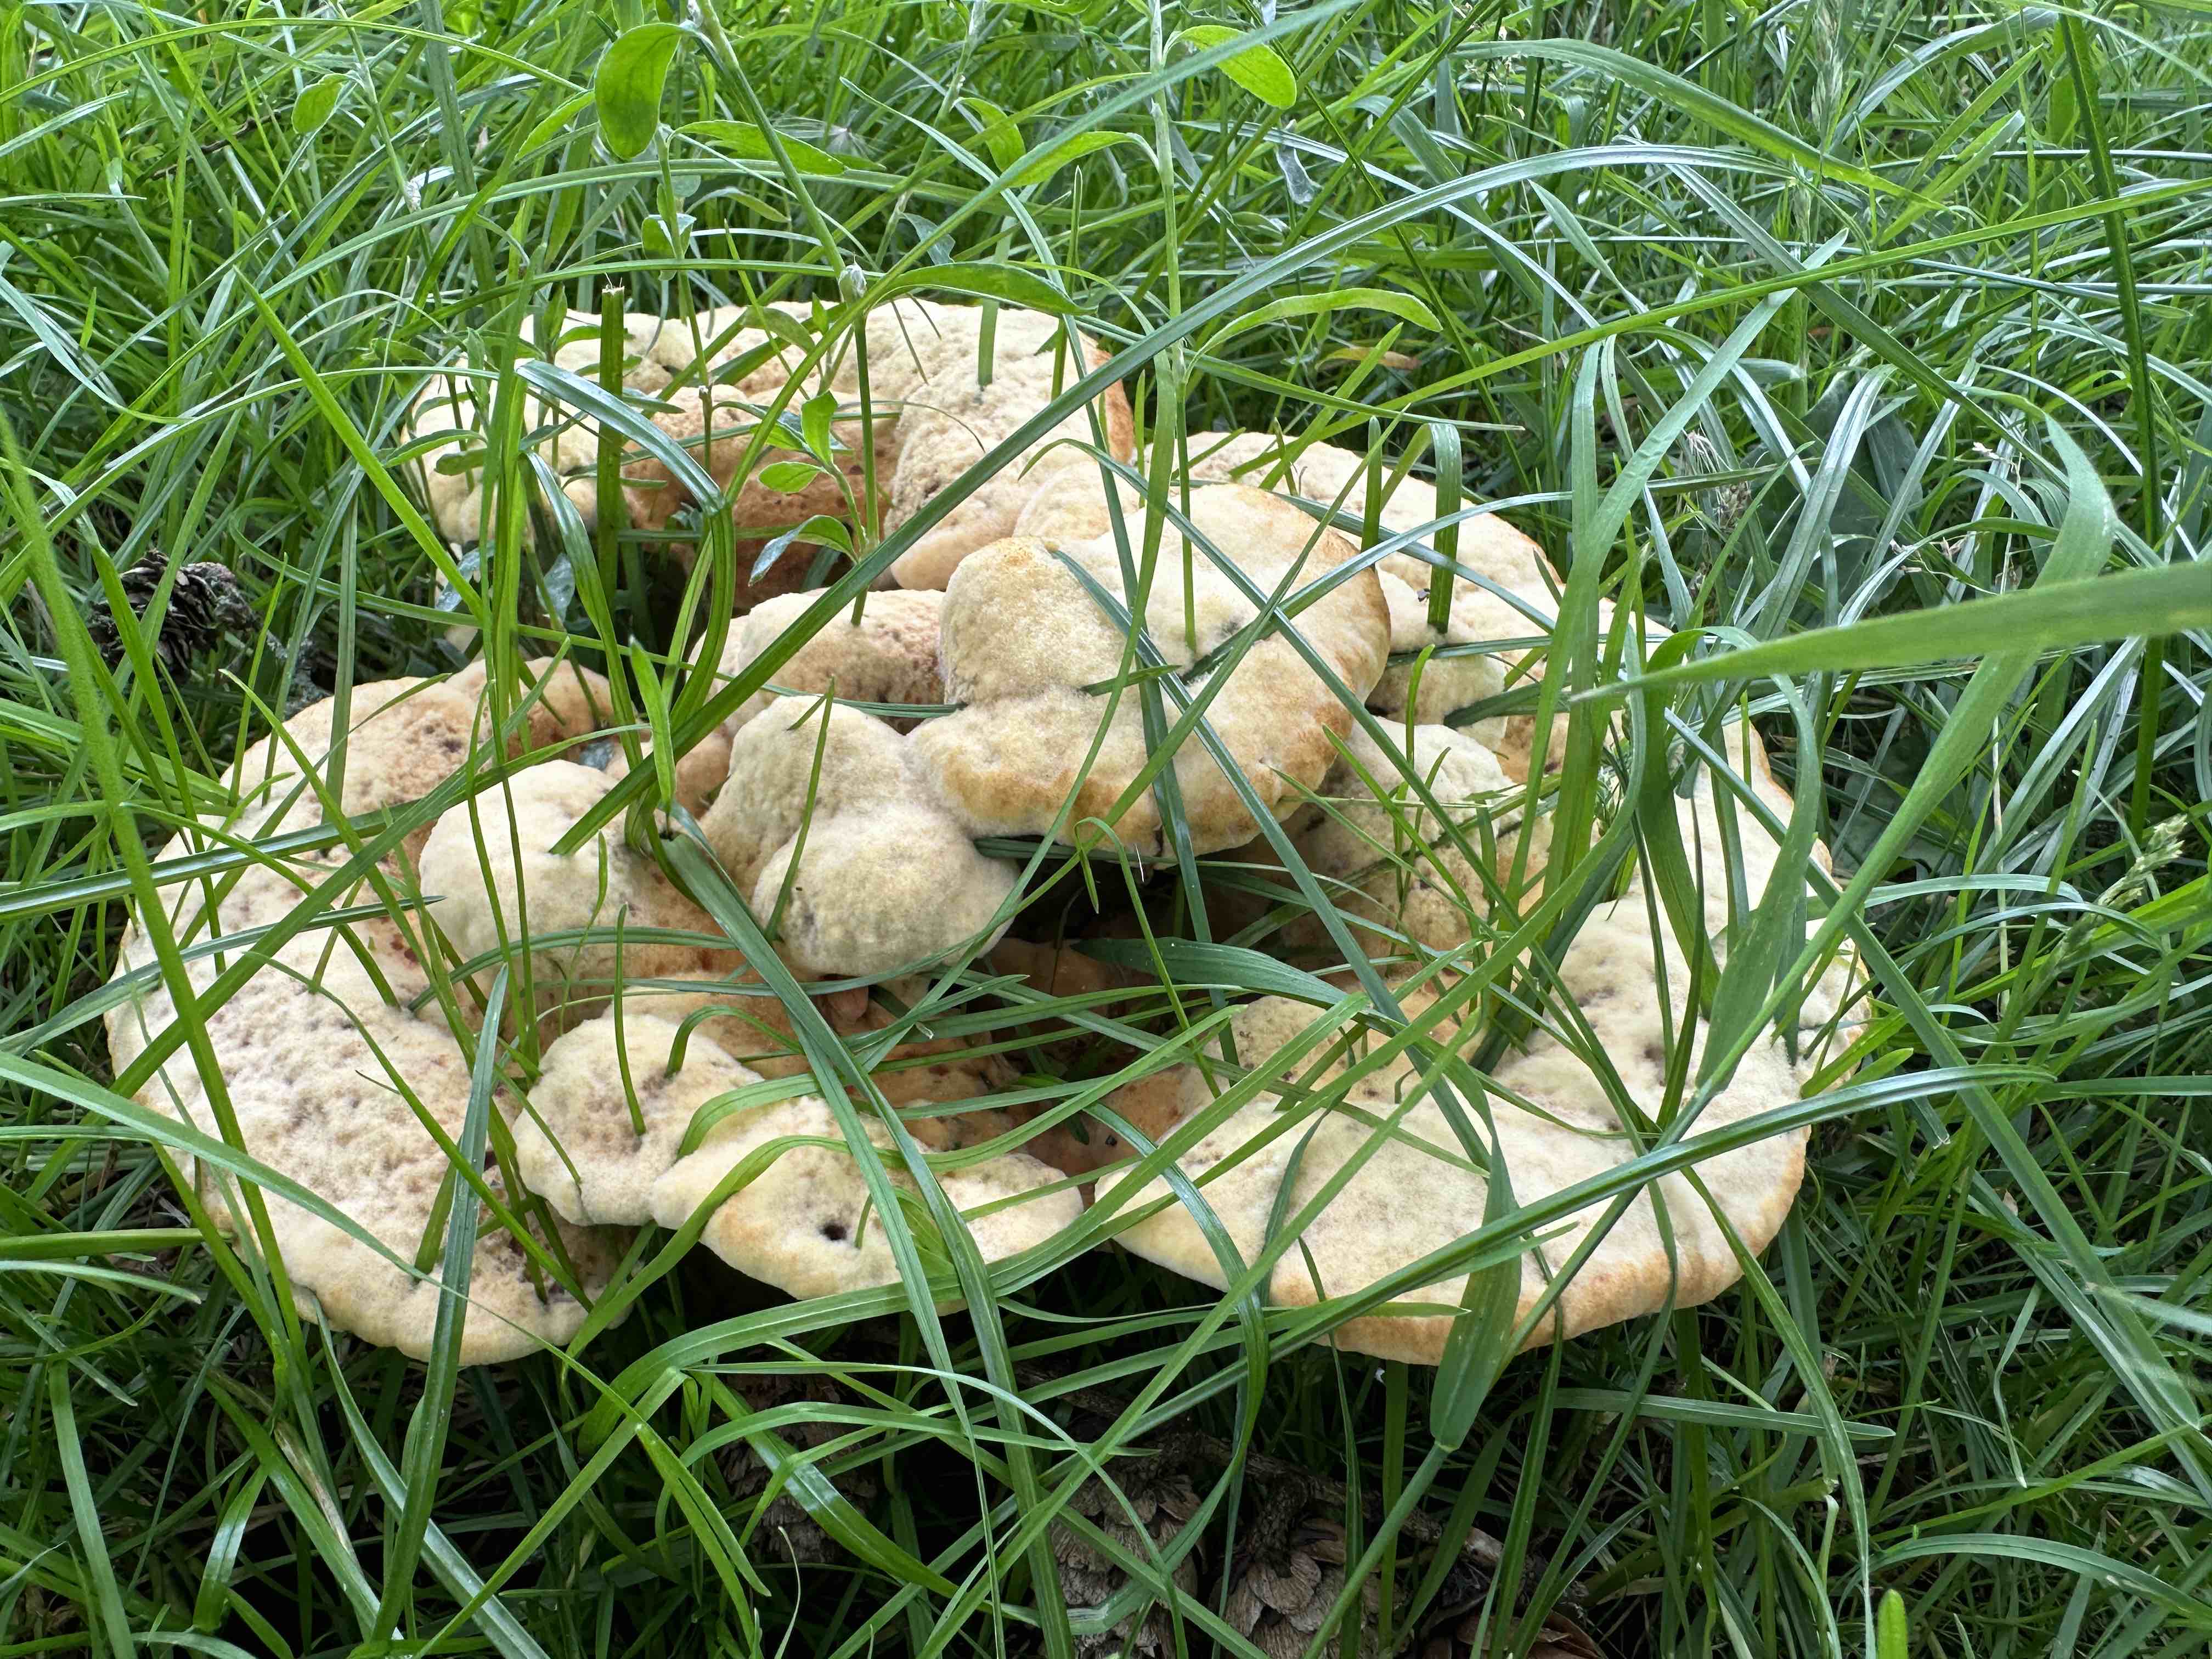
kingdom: Fungi
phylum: Basidiomycota
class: Agaricomycetes
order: Polyporales
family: Laetiporaceae
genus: Phaeolus
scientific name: Phaeolus schweinitzii
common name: brunporesvamp
